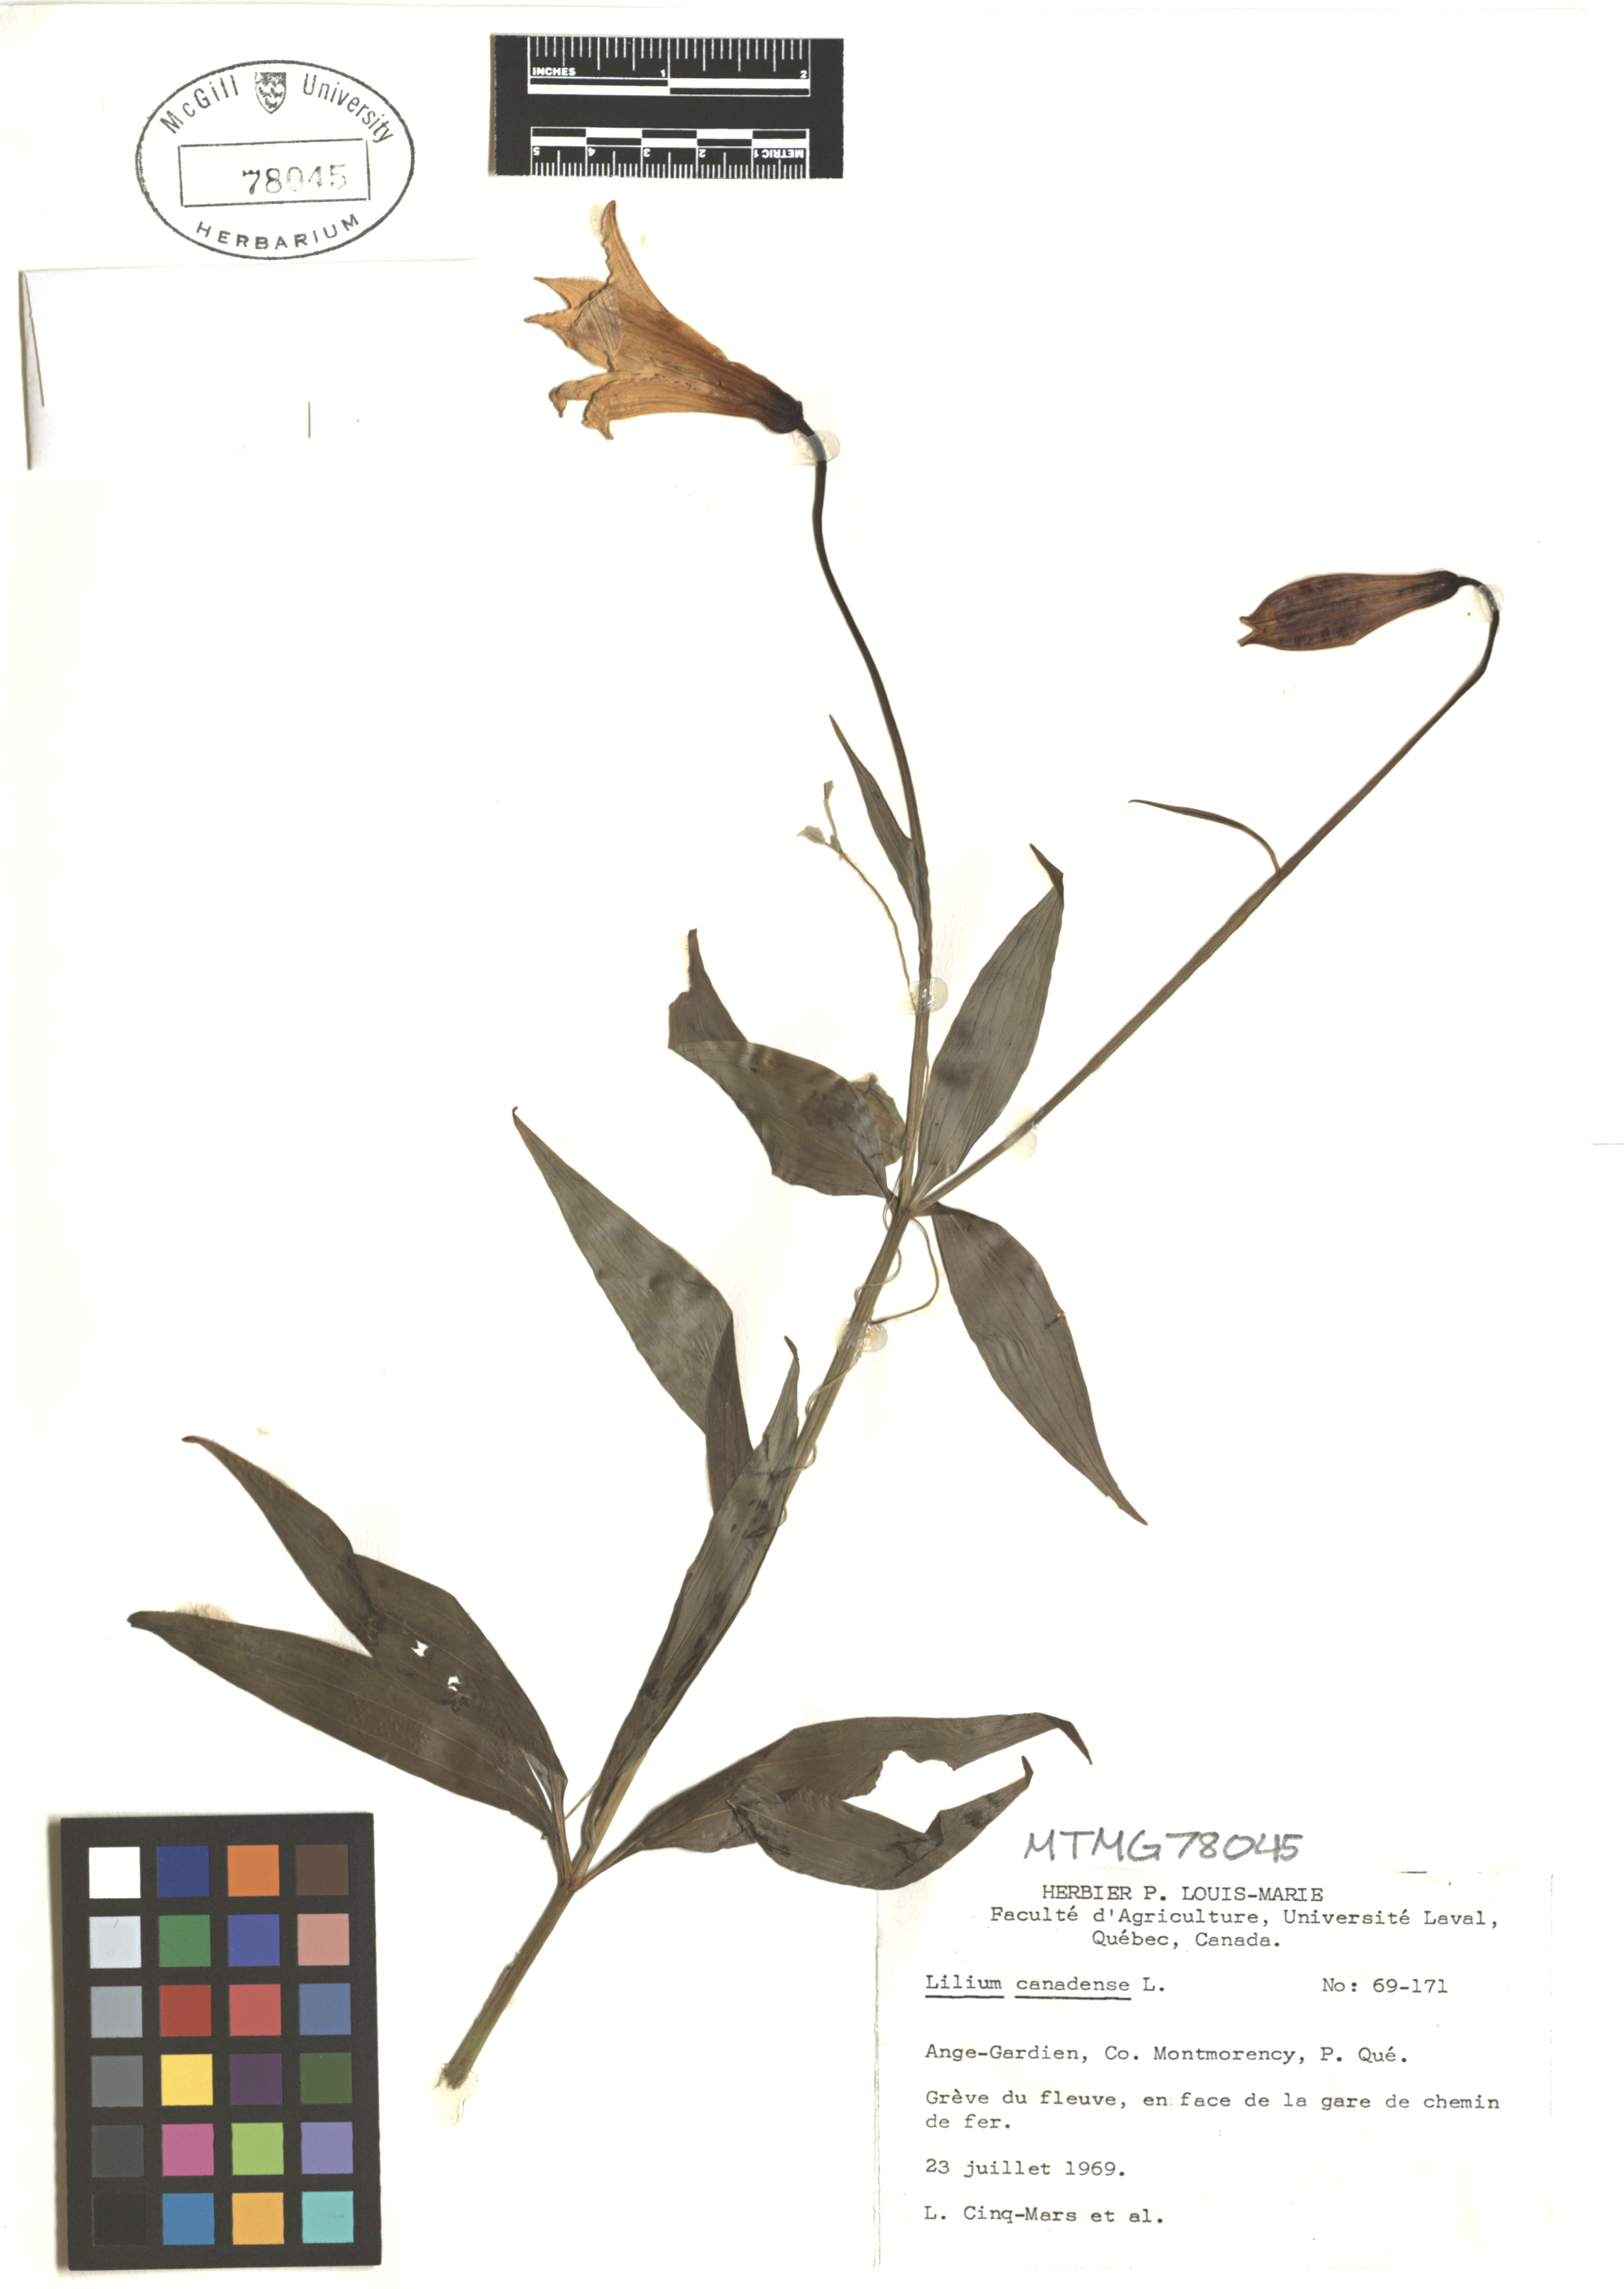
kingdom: Plantae
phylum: Tracheophyta
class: Liliopsida
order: Liliales
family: Liliaceae
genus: Lilium
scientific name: Lilium canadense
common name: Canada lily
